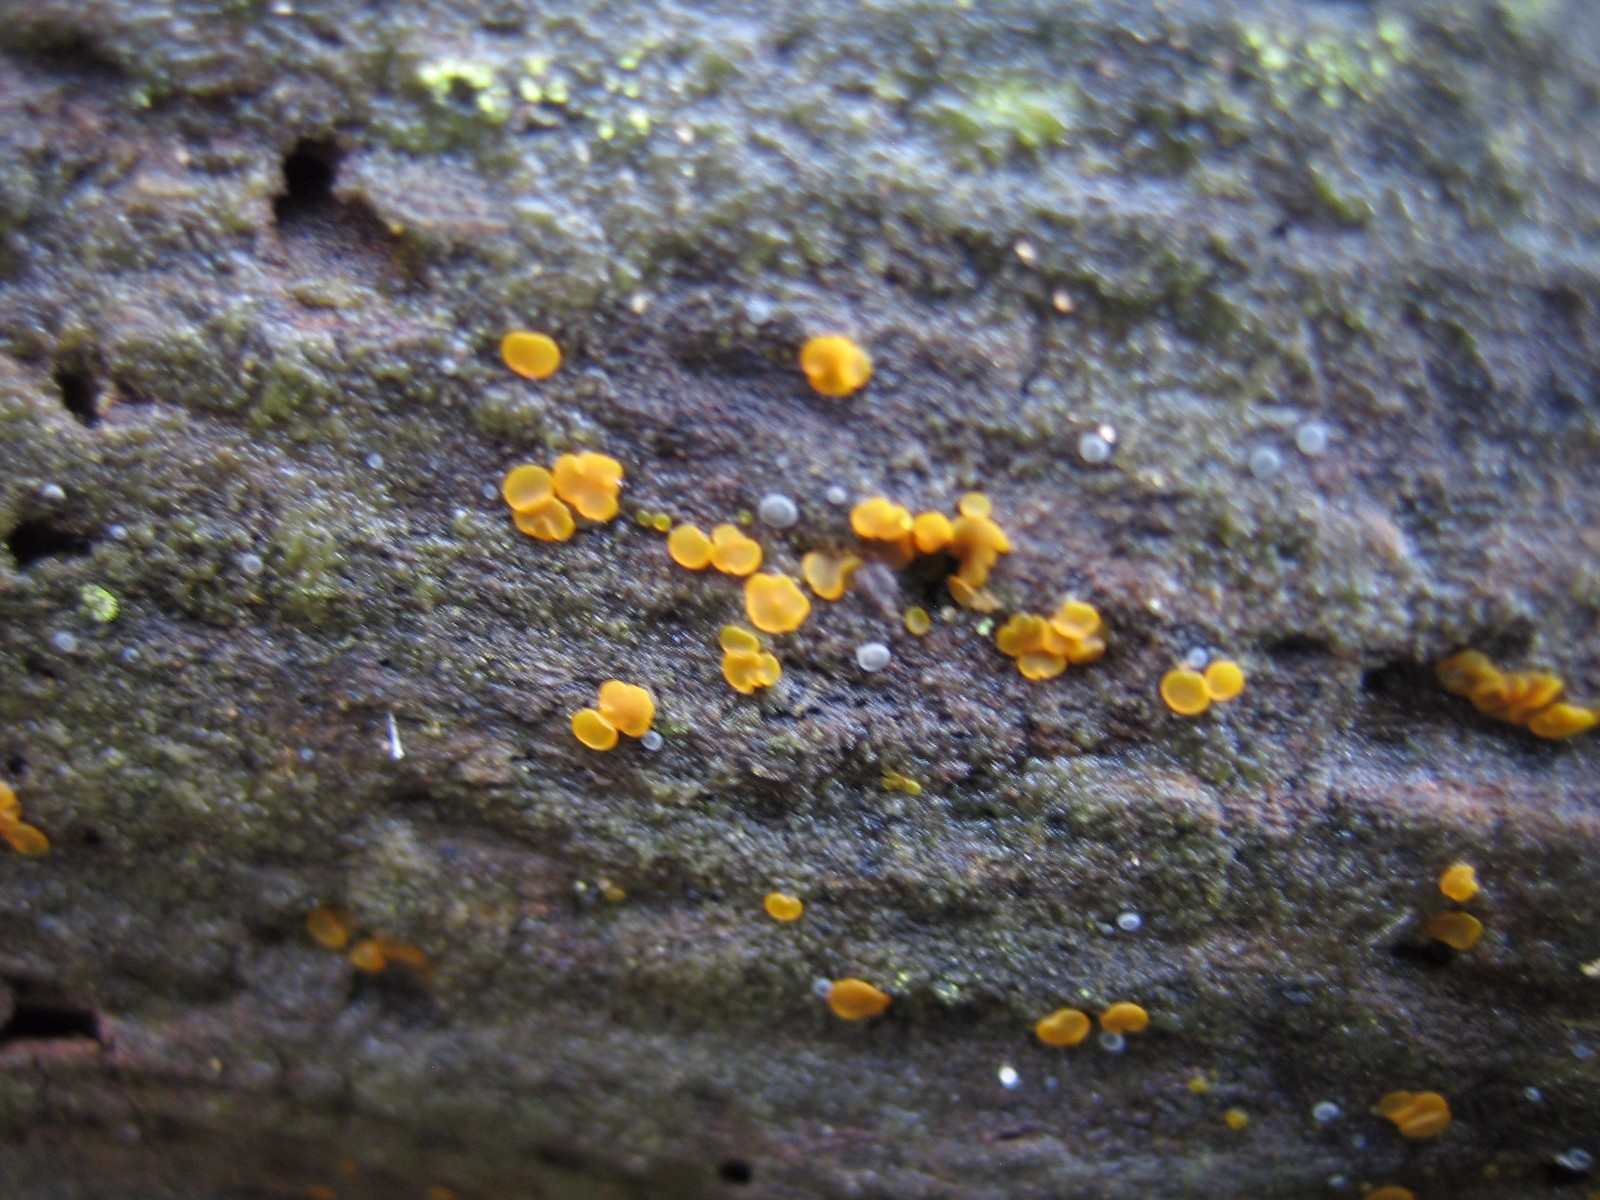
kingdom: Fungi
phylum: Ascomycota
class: Orbiliomycetes
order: Orbiliales
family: Orbiliaceae
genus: Orbilia
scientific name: Orbilia xanthostigma
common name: krumsporet voksskive
